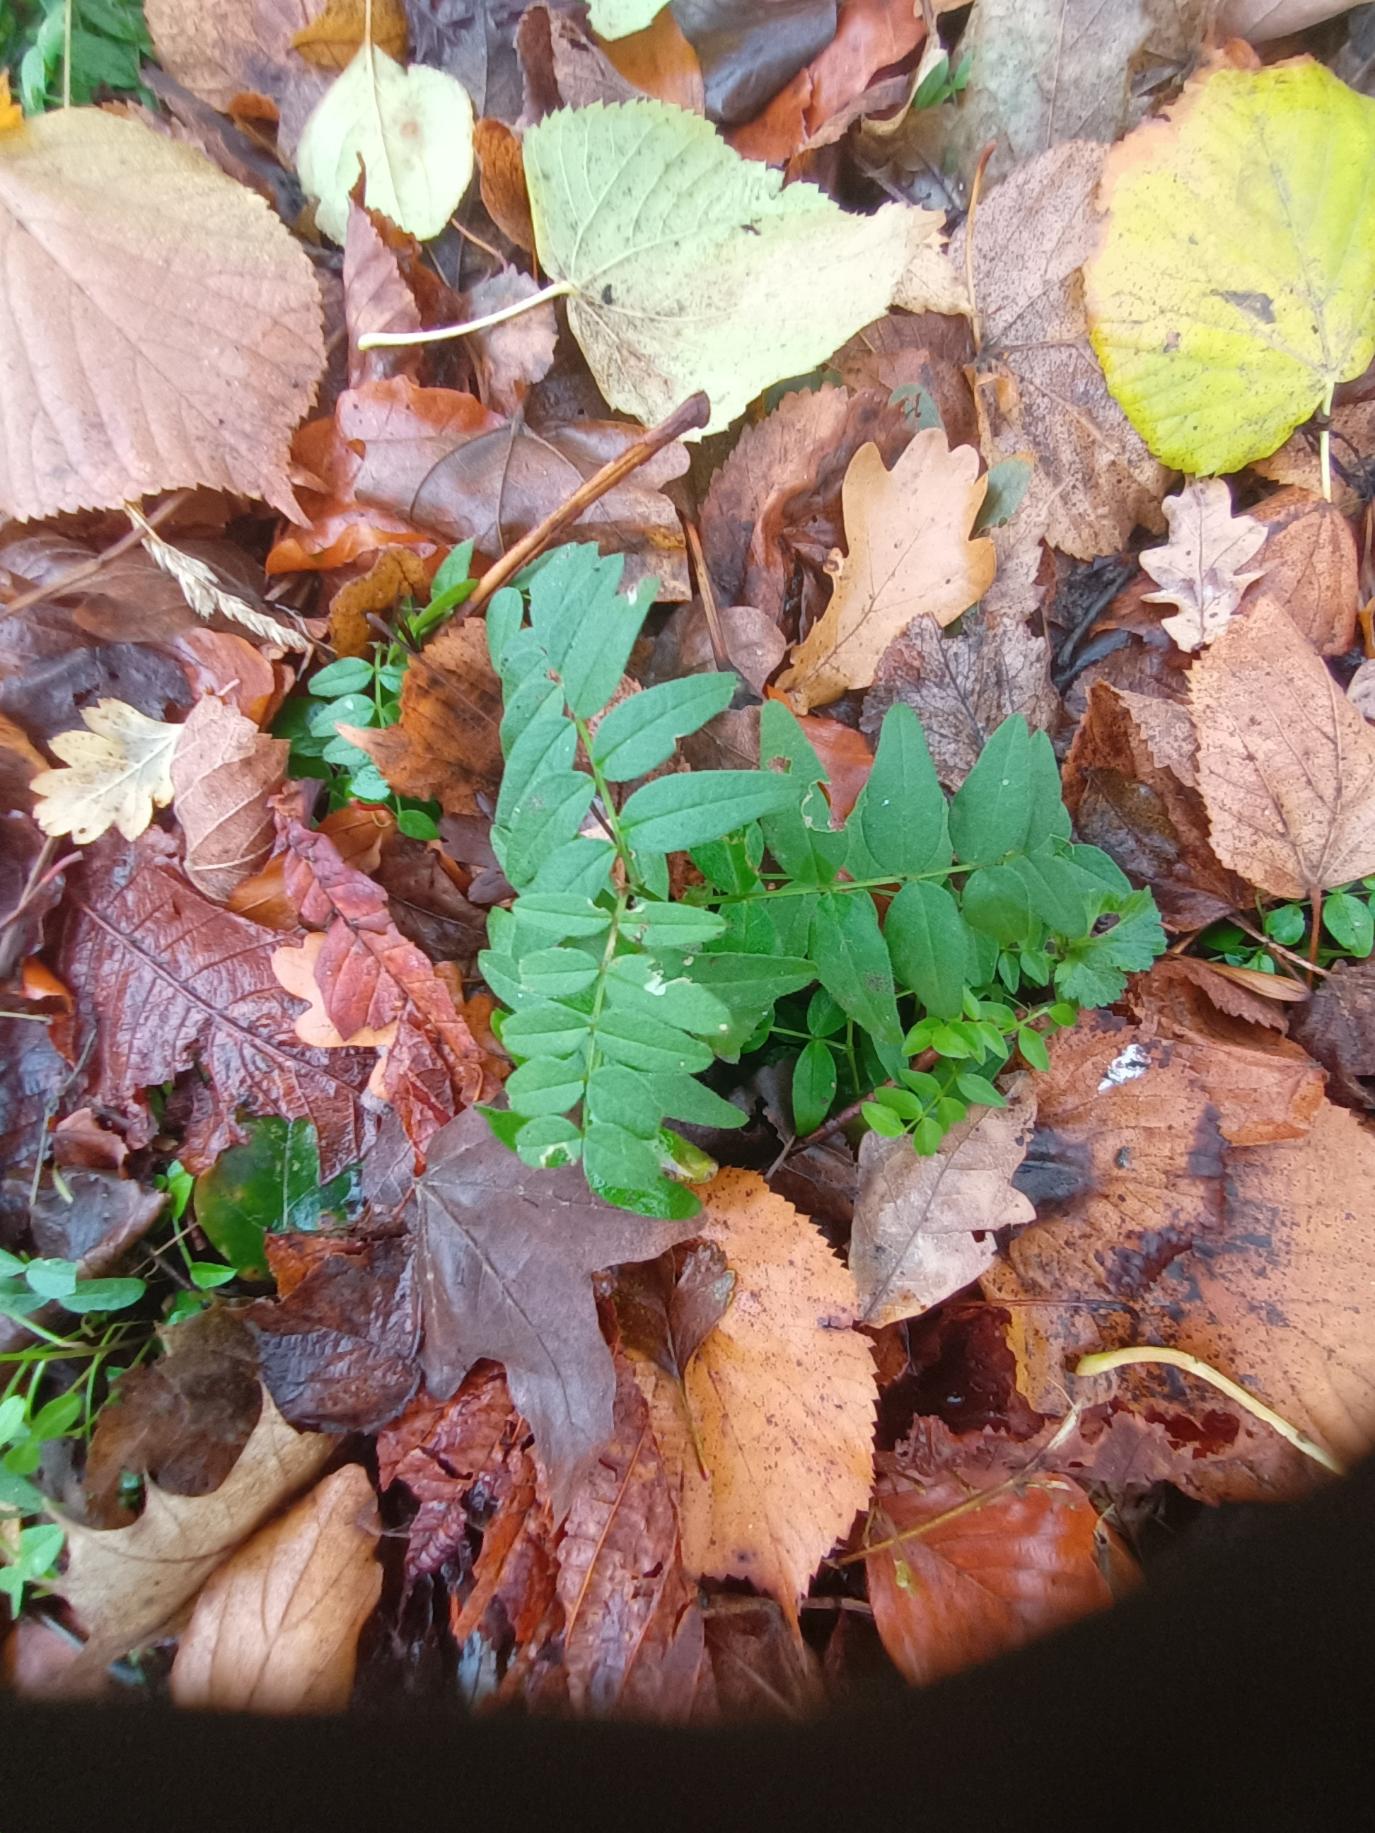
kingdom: Plantae
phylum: Tracheophyta
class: Magnoliopsida
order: Fabales
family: Fabaceae
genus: Vicia
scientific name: Vicia sepium
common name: Gærde-vikke
